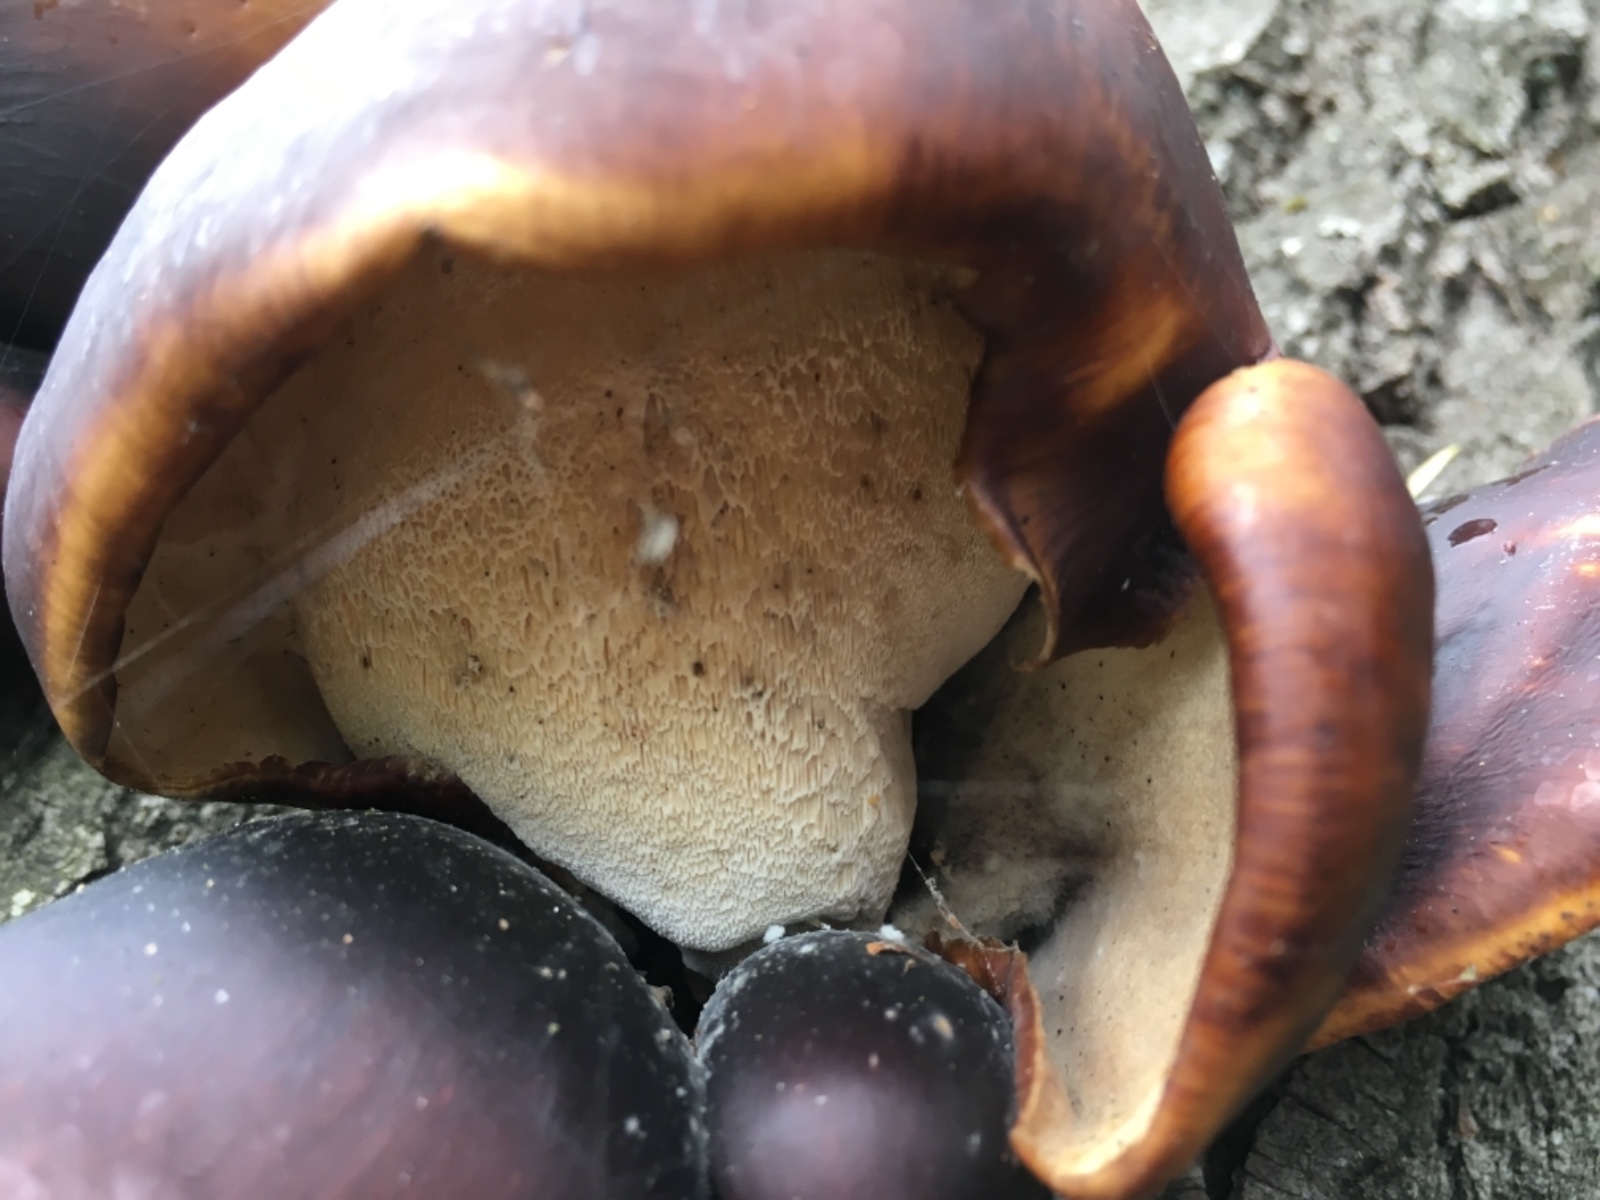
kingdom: Fungi
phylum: Basidiomycota
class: Agaricomycetes
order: Polyporales
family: Polyporaceae
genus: Picipes
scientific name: Picipes badius
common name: kastaniebrun stilkporesvamp
